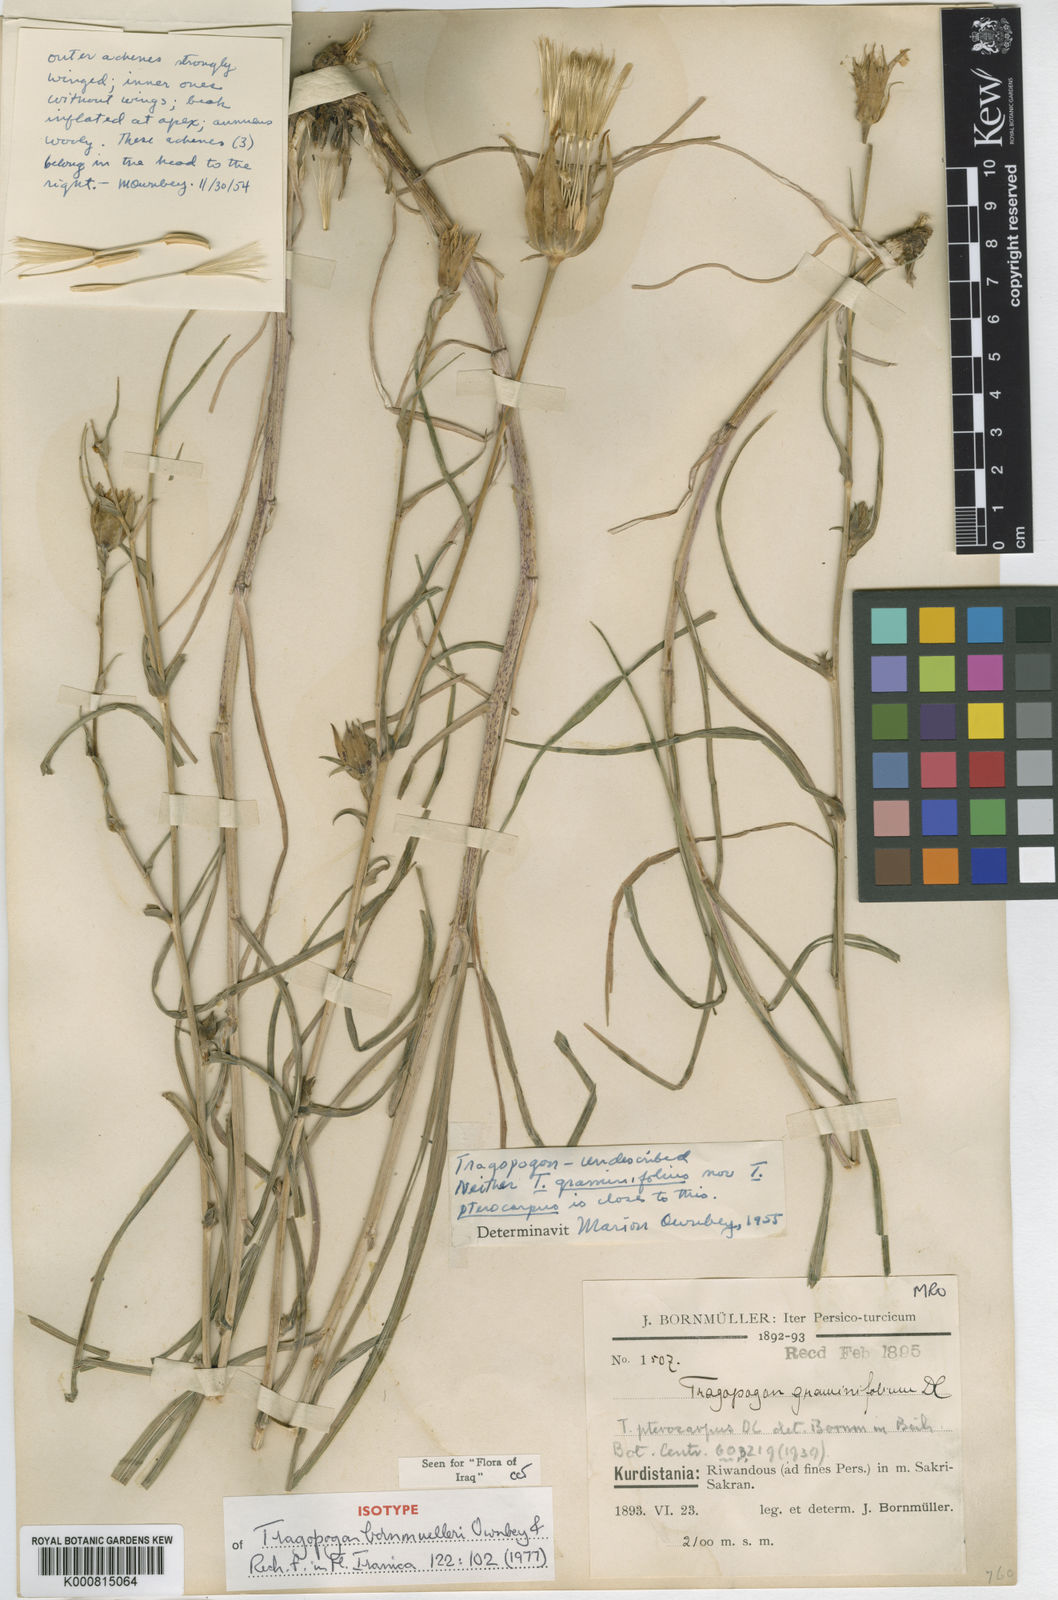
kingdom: Plantae
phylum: Tracheophyta
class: Magnoliopsida
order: Asterales
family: Asteraceae
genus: Tragopogon
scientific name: Tragopogon bornmuelleri
